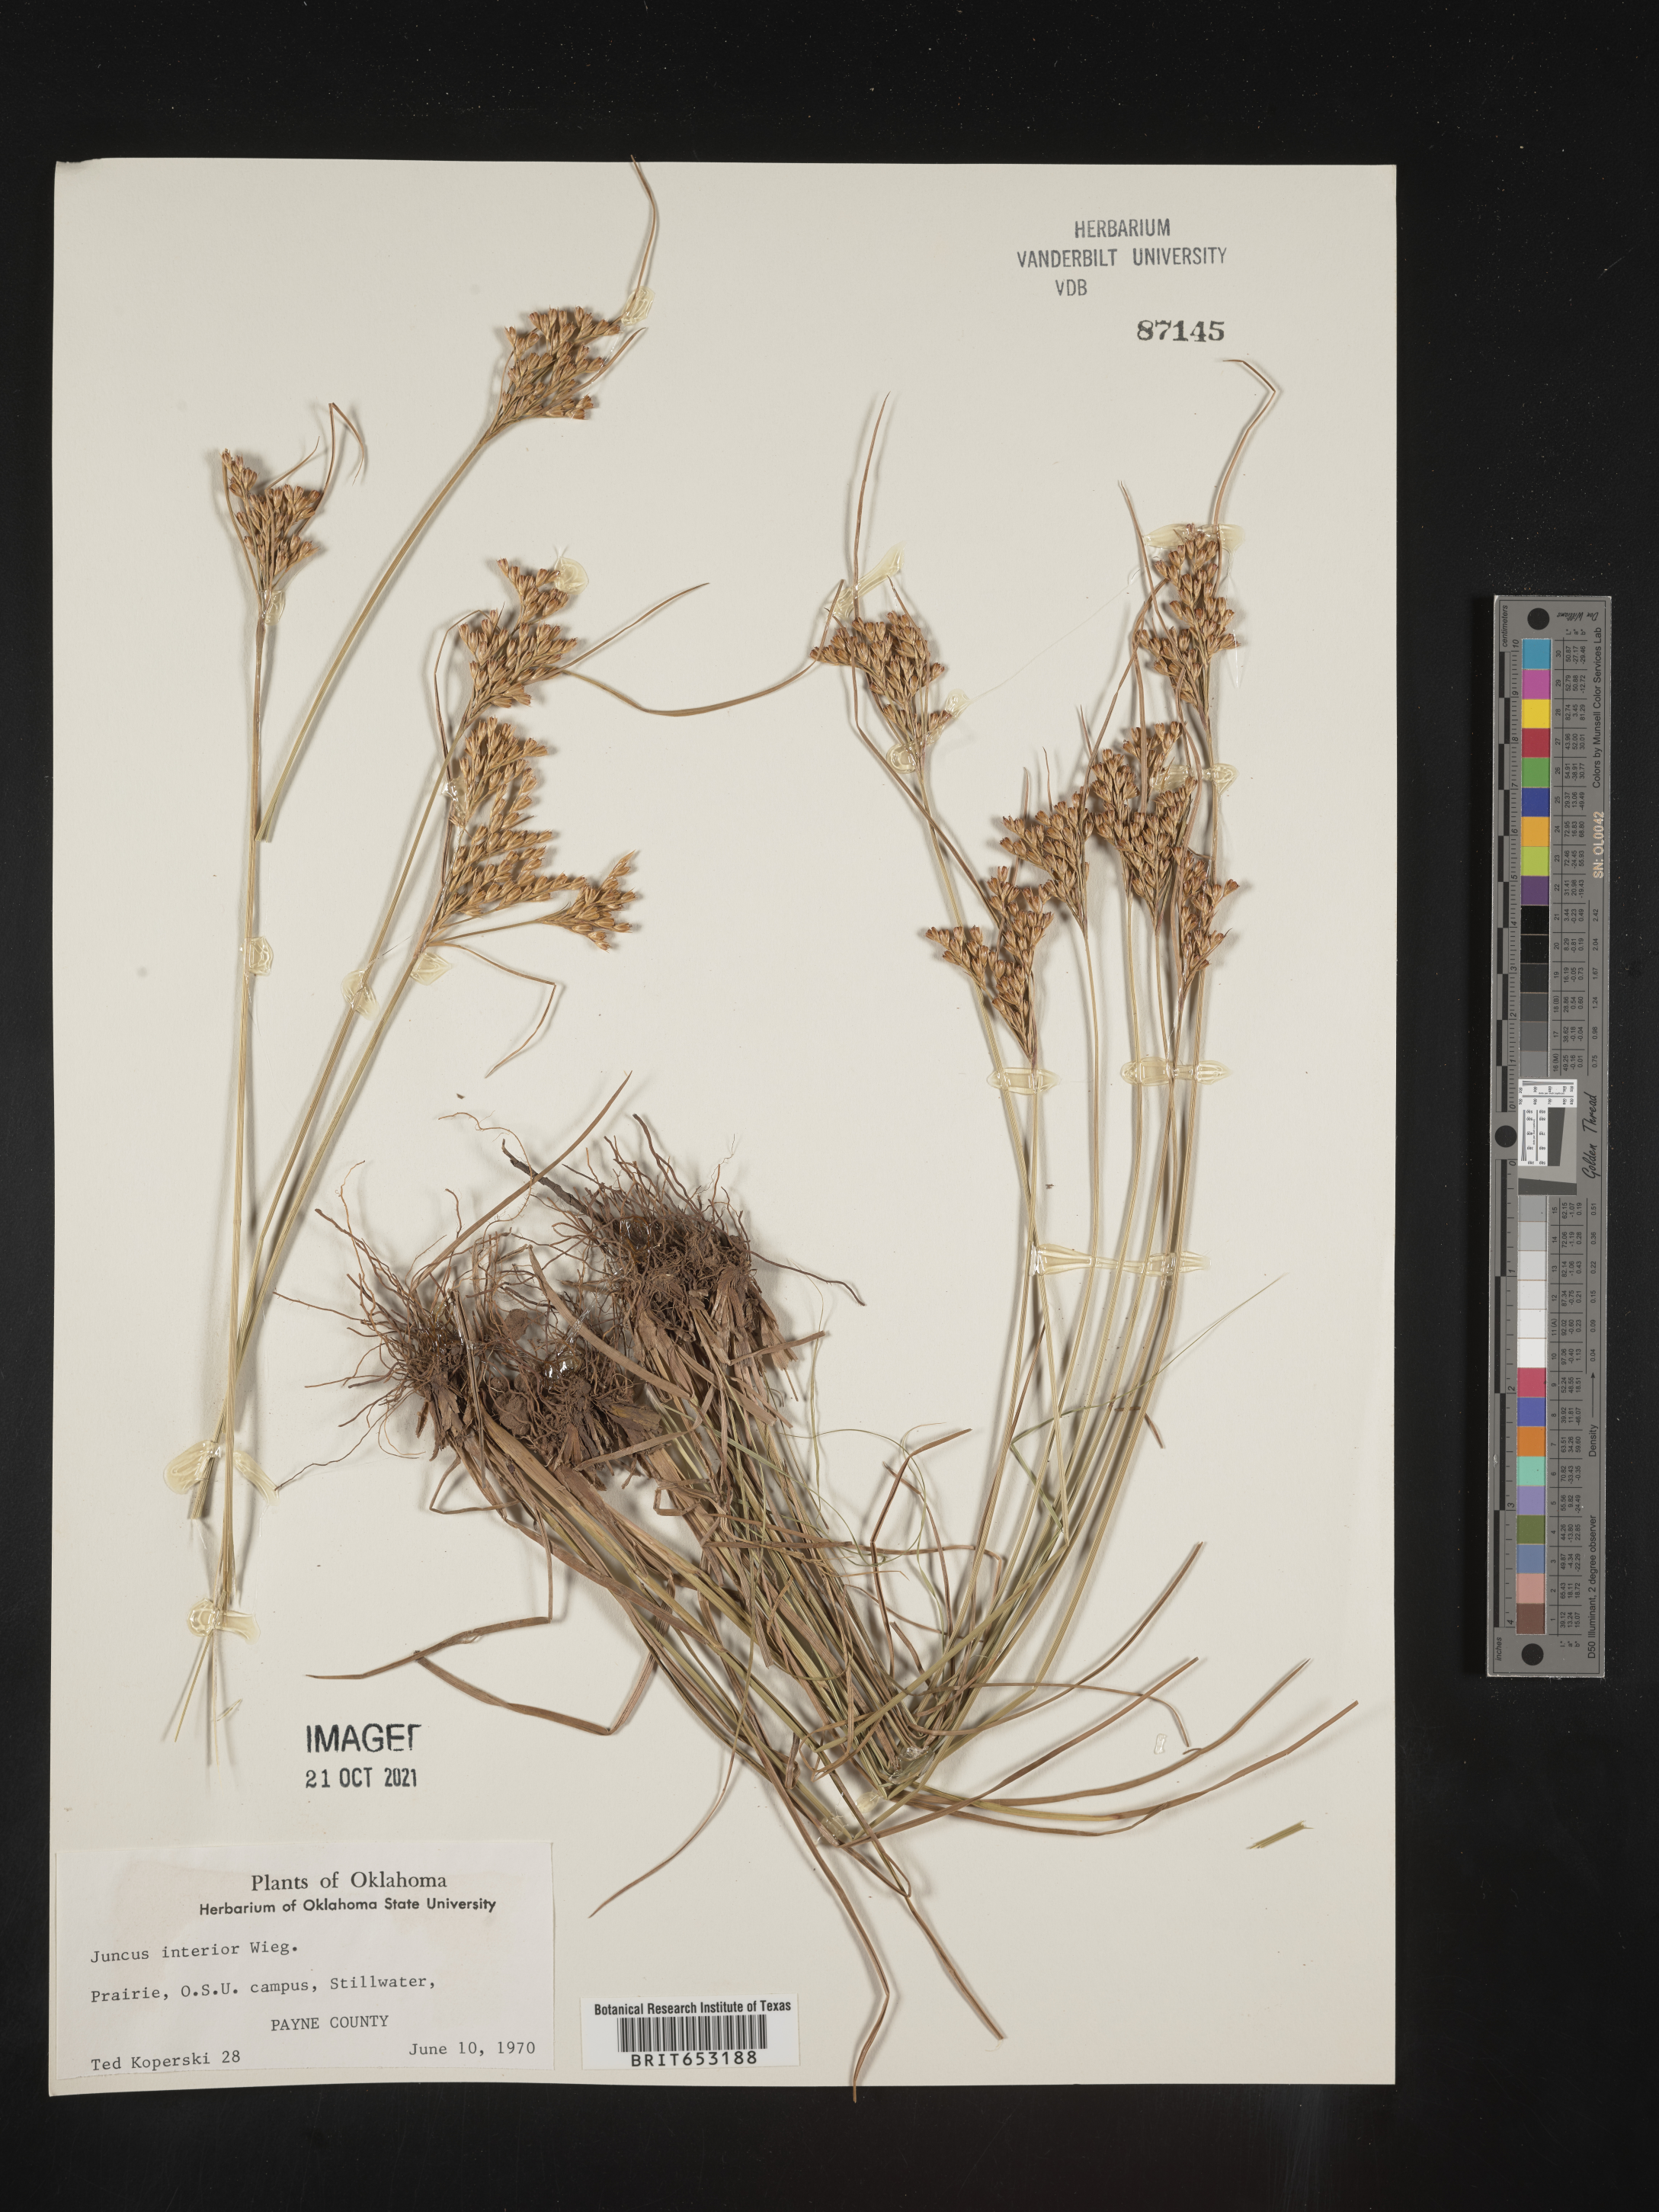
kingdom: Plantae
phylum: Tracheophyta
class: Liliopsida
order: Poales
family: Juncaceae
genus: Juncus
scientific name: Juncus interior
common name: Interior rush
